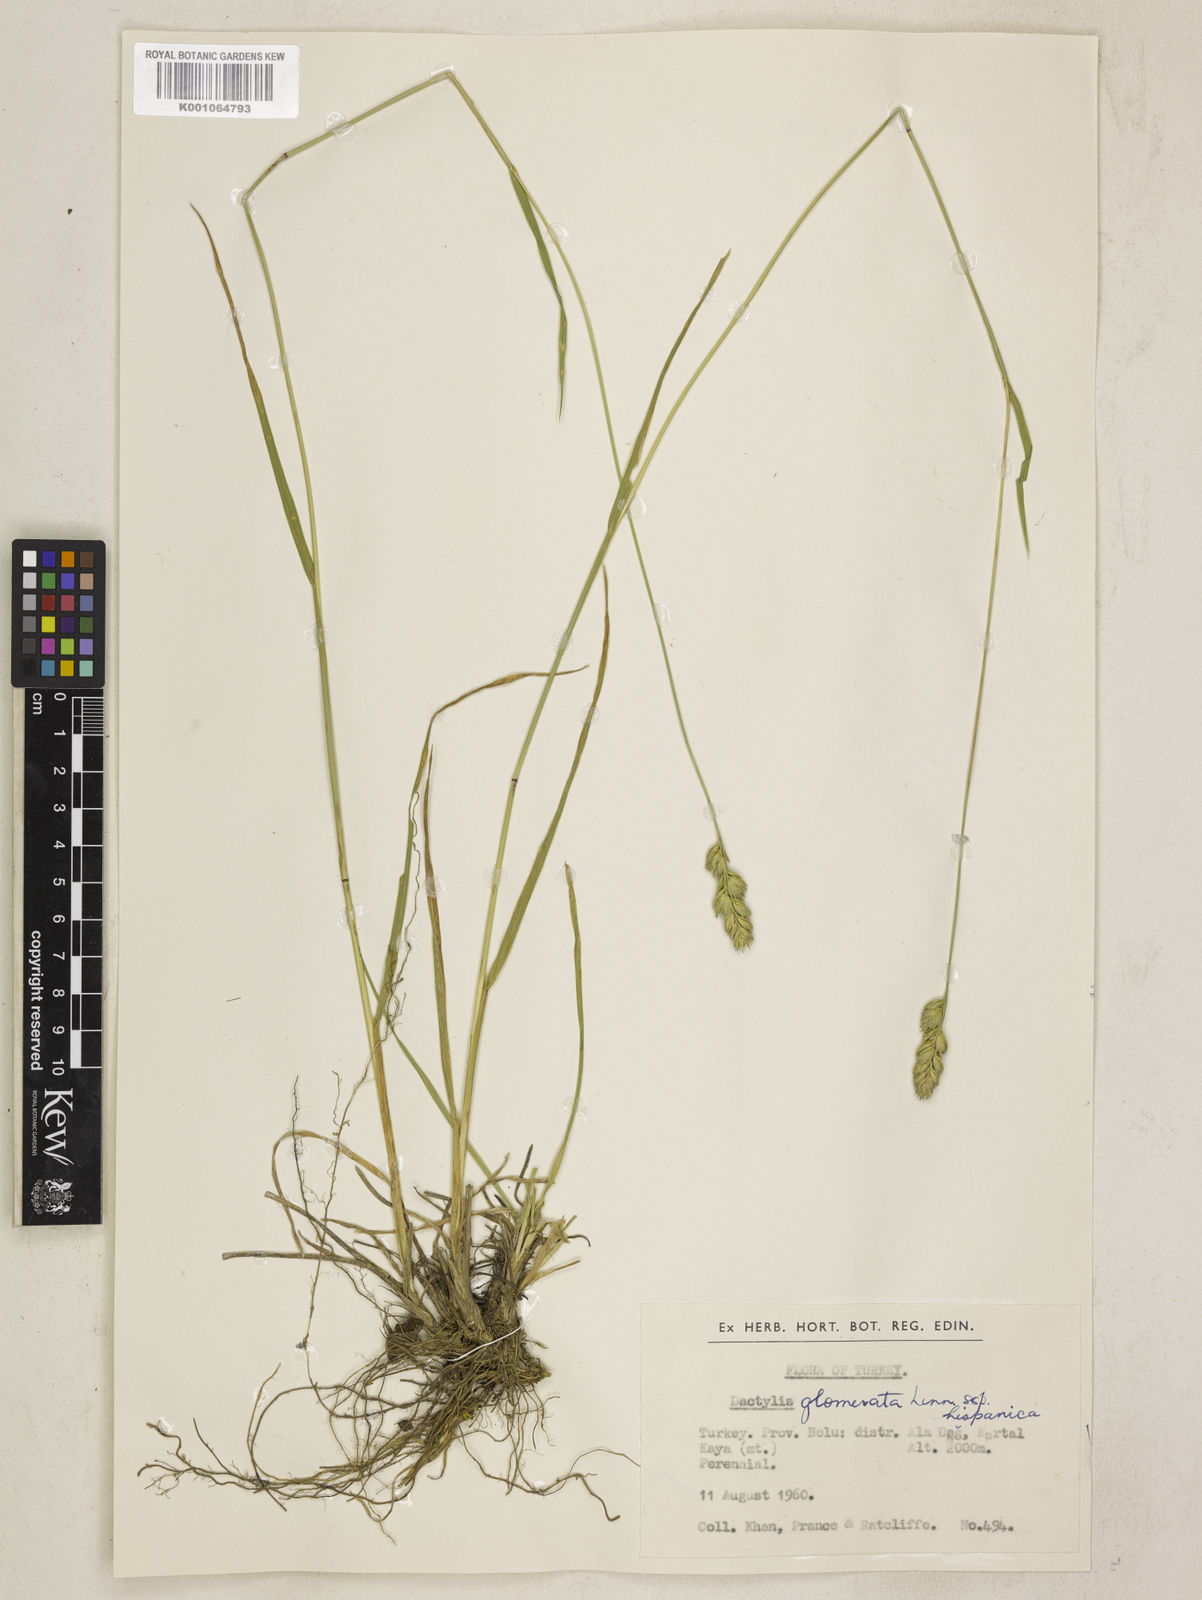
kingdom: Plantae
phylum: Tracheophyta
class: Liliopsida
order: Poales
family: Poaceae
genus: Dactylis
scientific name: Dactylis glomerata
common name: Orchardgrass
